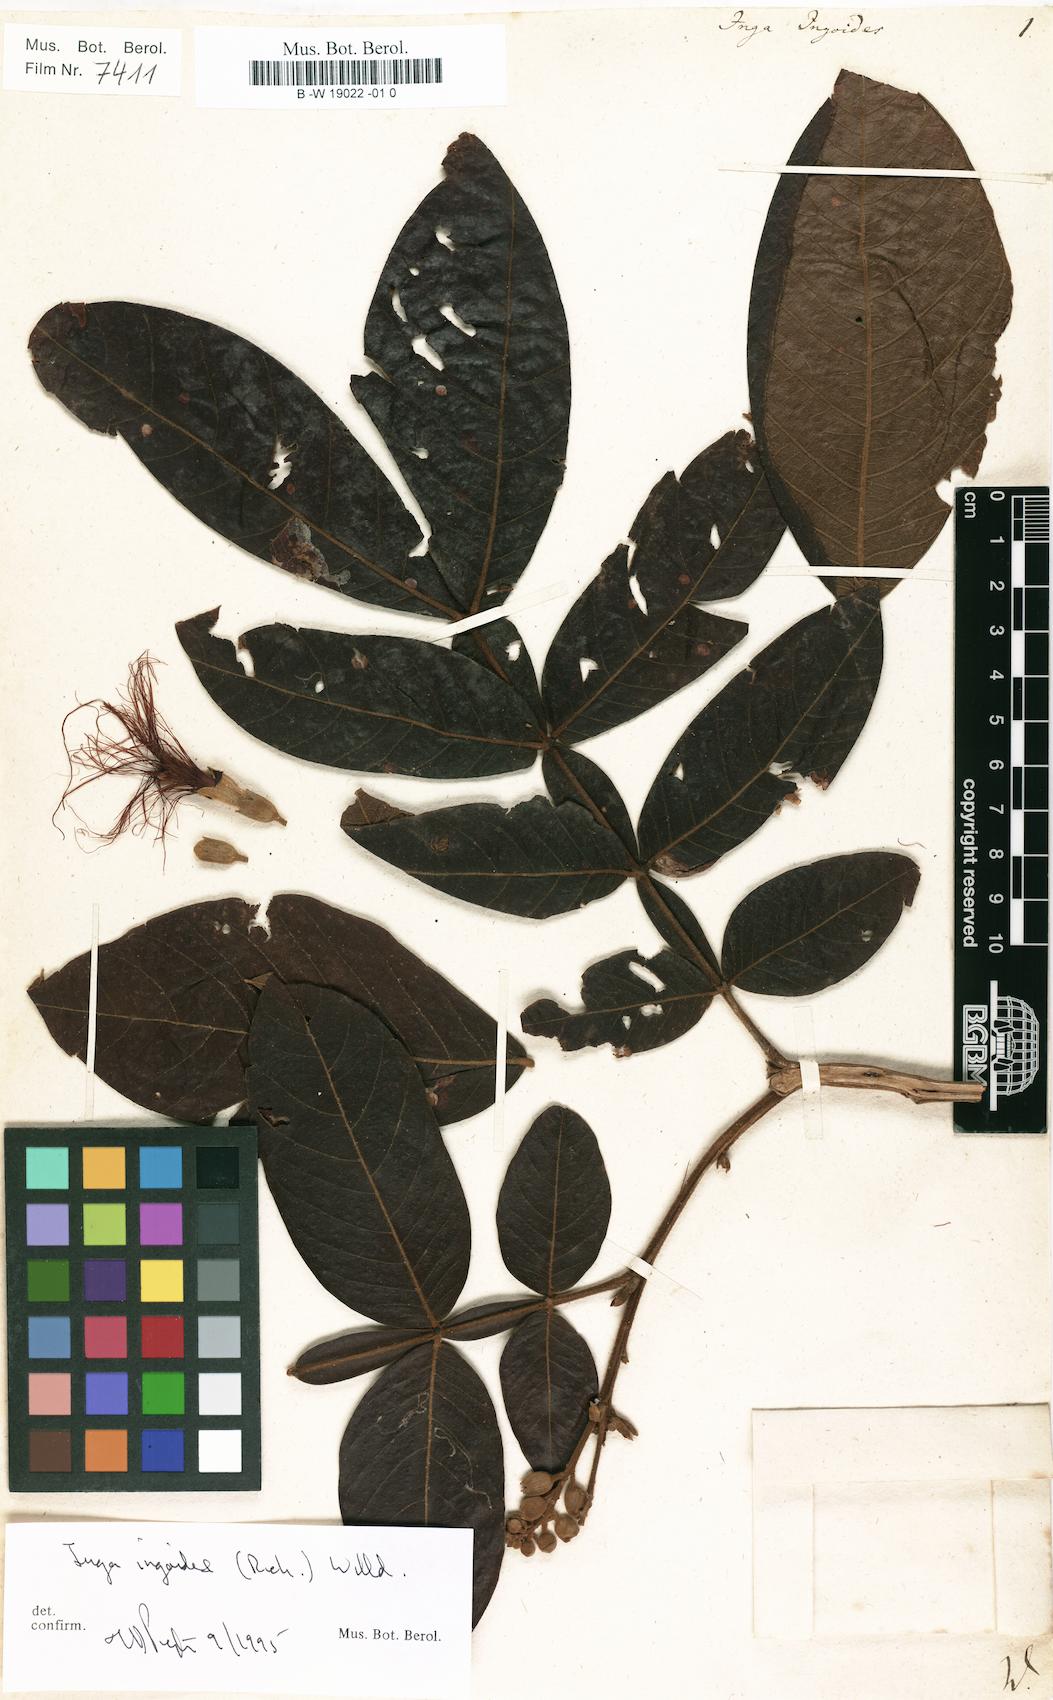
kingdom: Plantae
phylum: Tracheophyta
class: Magnoliopsida
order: Fabales
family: Fabaceae
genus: Inga
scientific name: Inga ingoides
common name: Spanish ash
